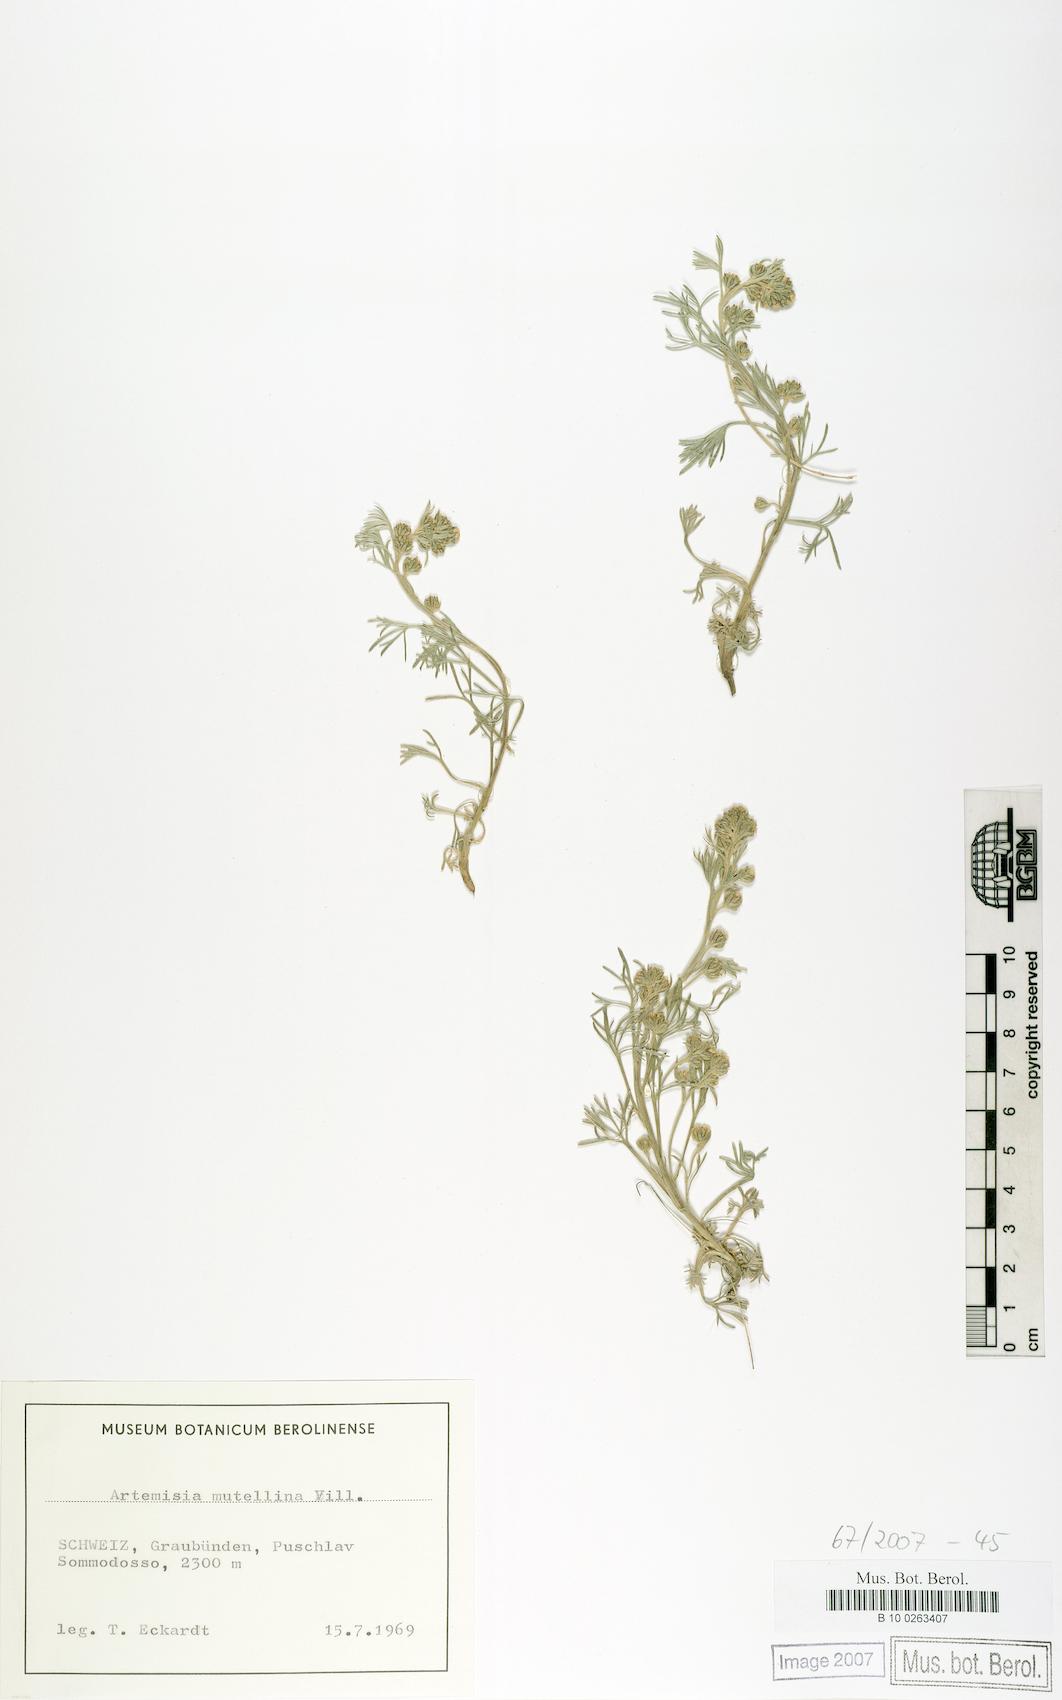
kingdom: Plantae
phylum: Tracheophyta
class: Magnoliopsida
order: Asterales
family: Asteraceae
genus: Artemisia
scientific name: Artemisia mutellina
